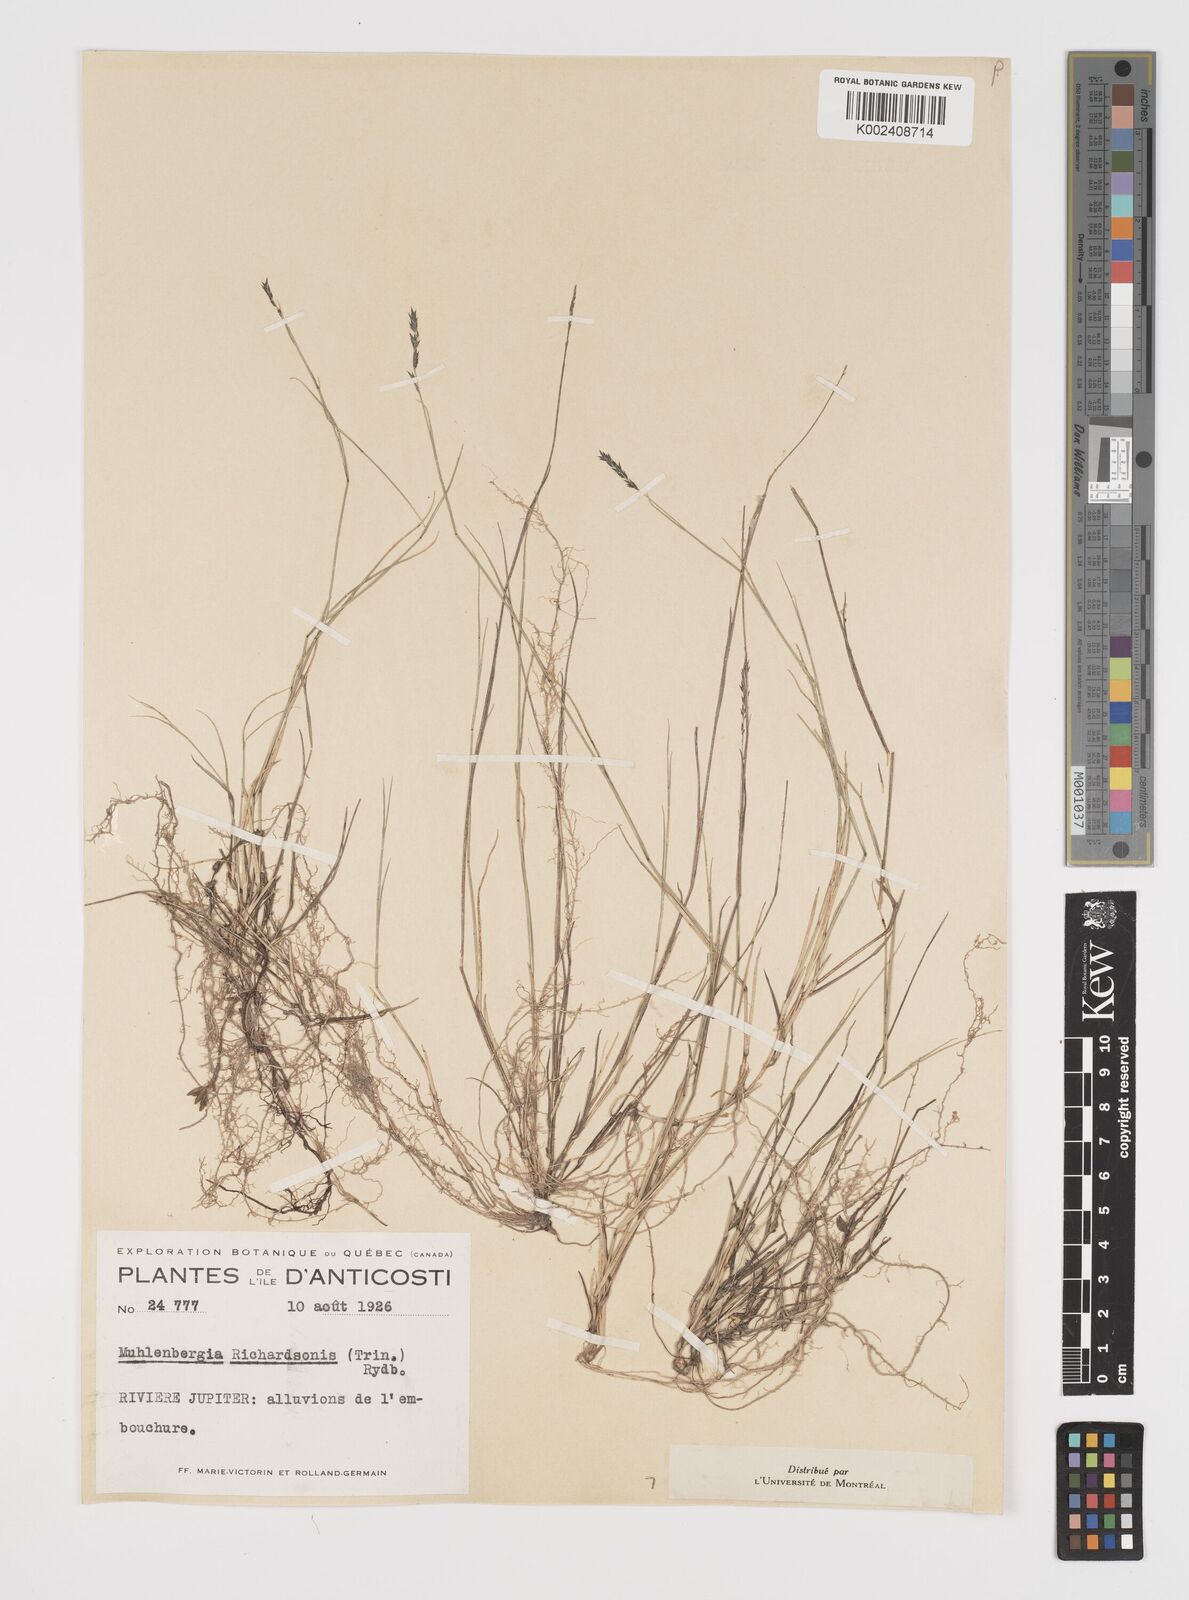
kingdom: Plantae
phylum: Tracheophyta
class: Liliopsida
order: Poales
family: Poaceae
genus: Muhlenbergia
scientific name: Muhlenbergia richardsonis
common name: Mat muhly
